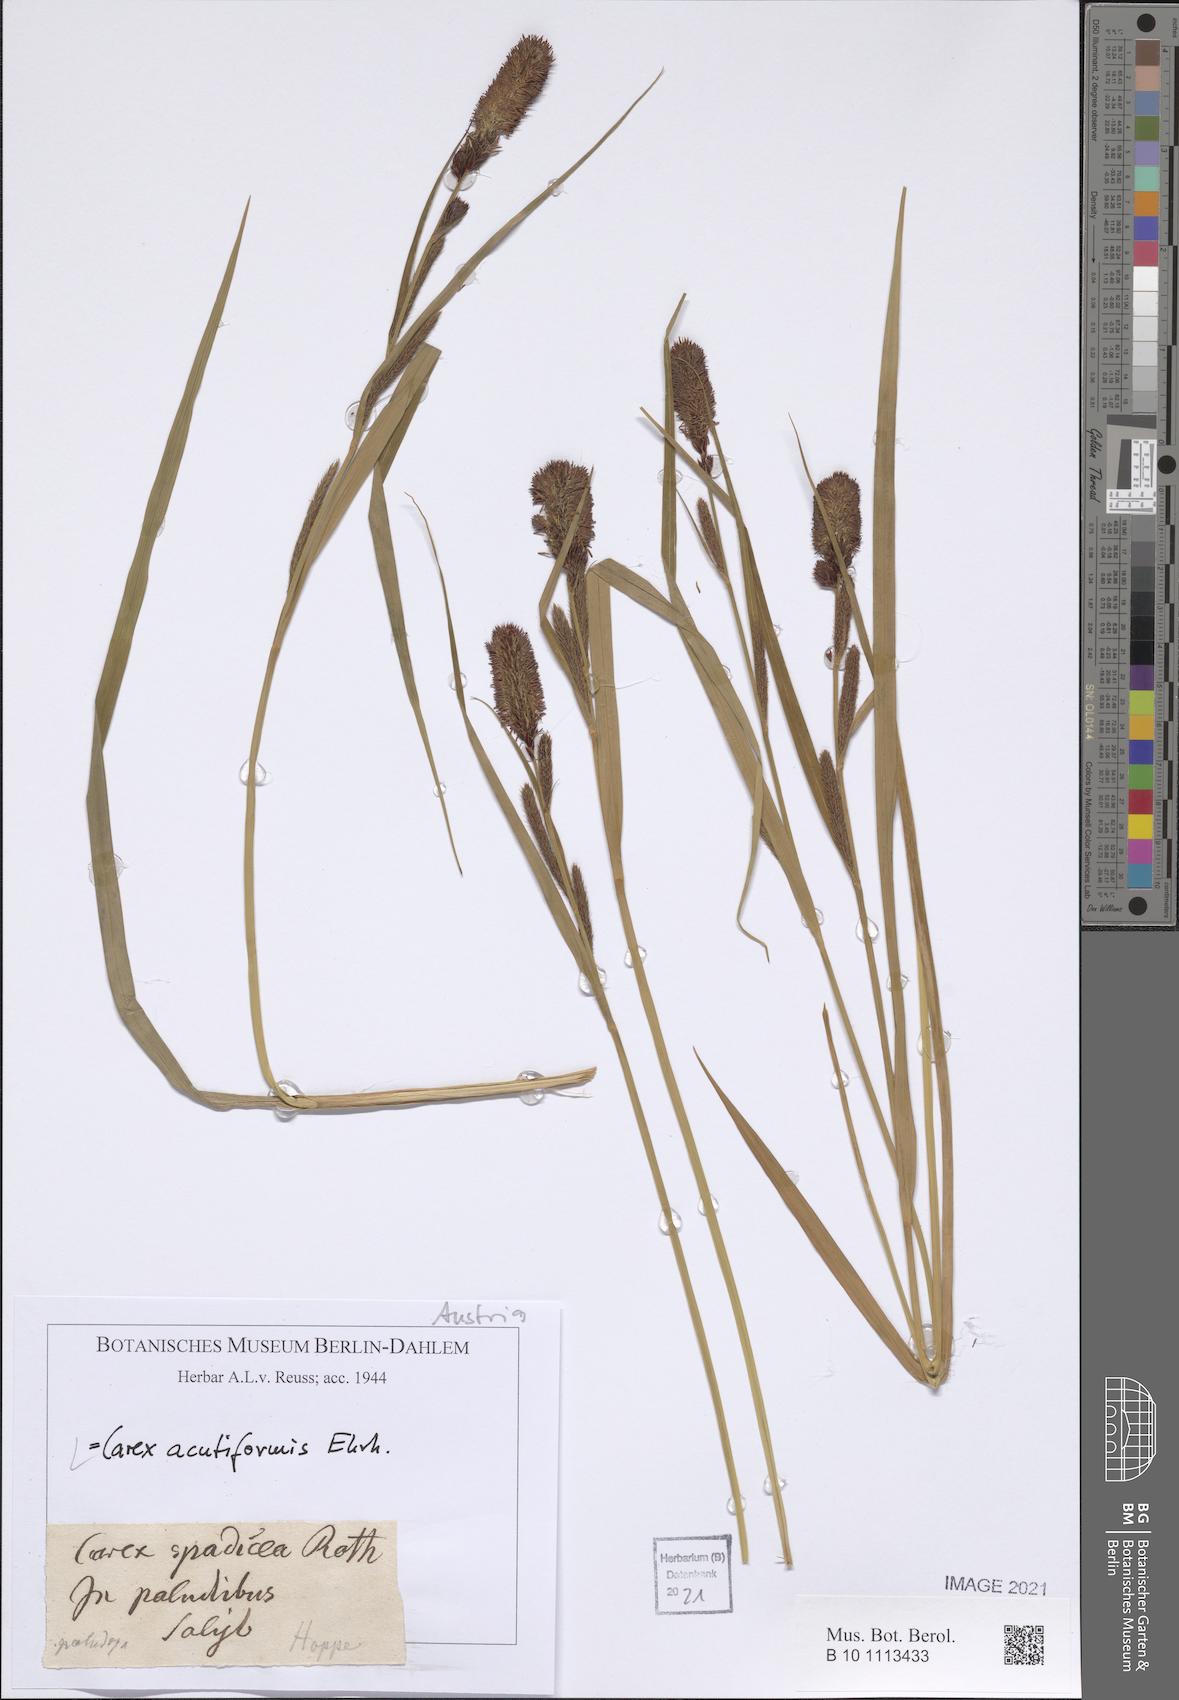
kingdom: Plantae
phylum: Tracheophyta
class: Liliopsida
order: Poales
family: Cyperaceae
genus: Carex
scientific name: Carex acutiformis
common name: Lesser pond-sedge
